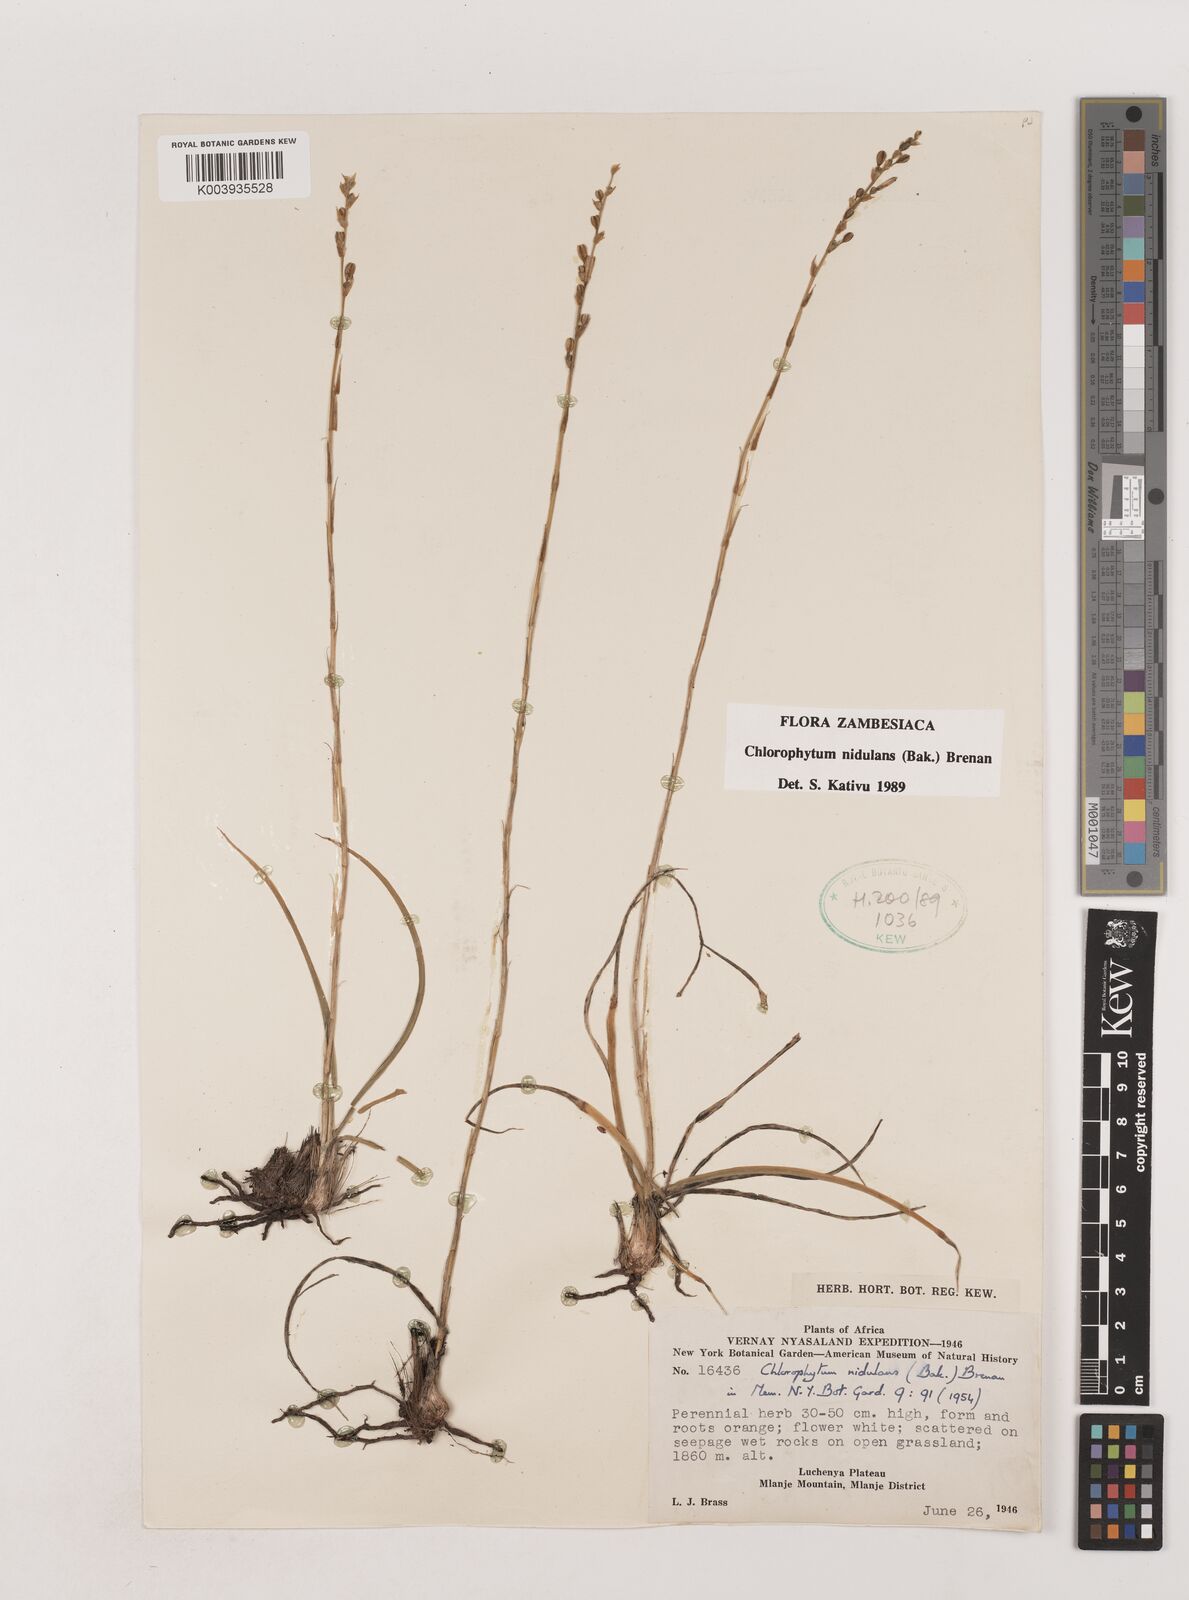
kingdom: Plantae
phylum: Tracheophyta
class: Liliopsida
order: Asparagales
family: Asparagaceae
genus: Chlorophytum
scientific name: Chlorophytum nidulans
